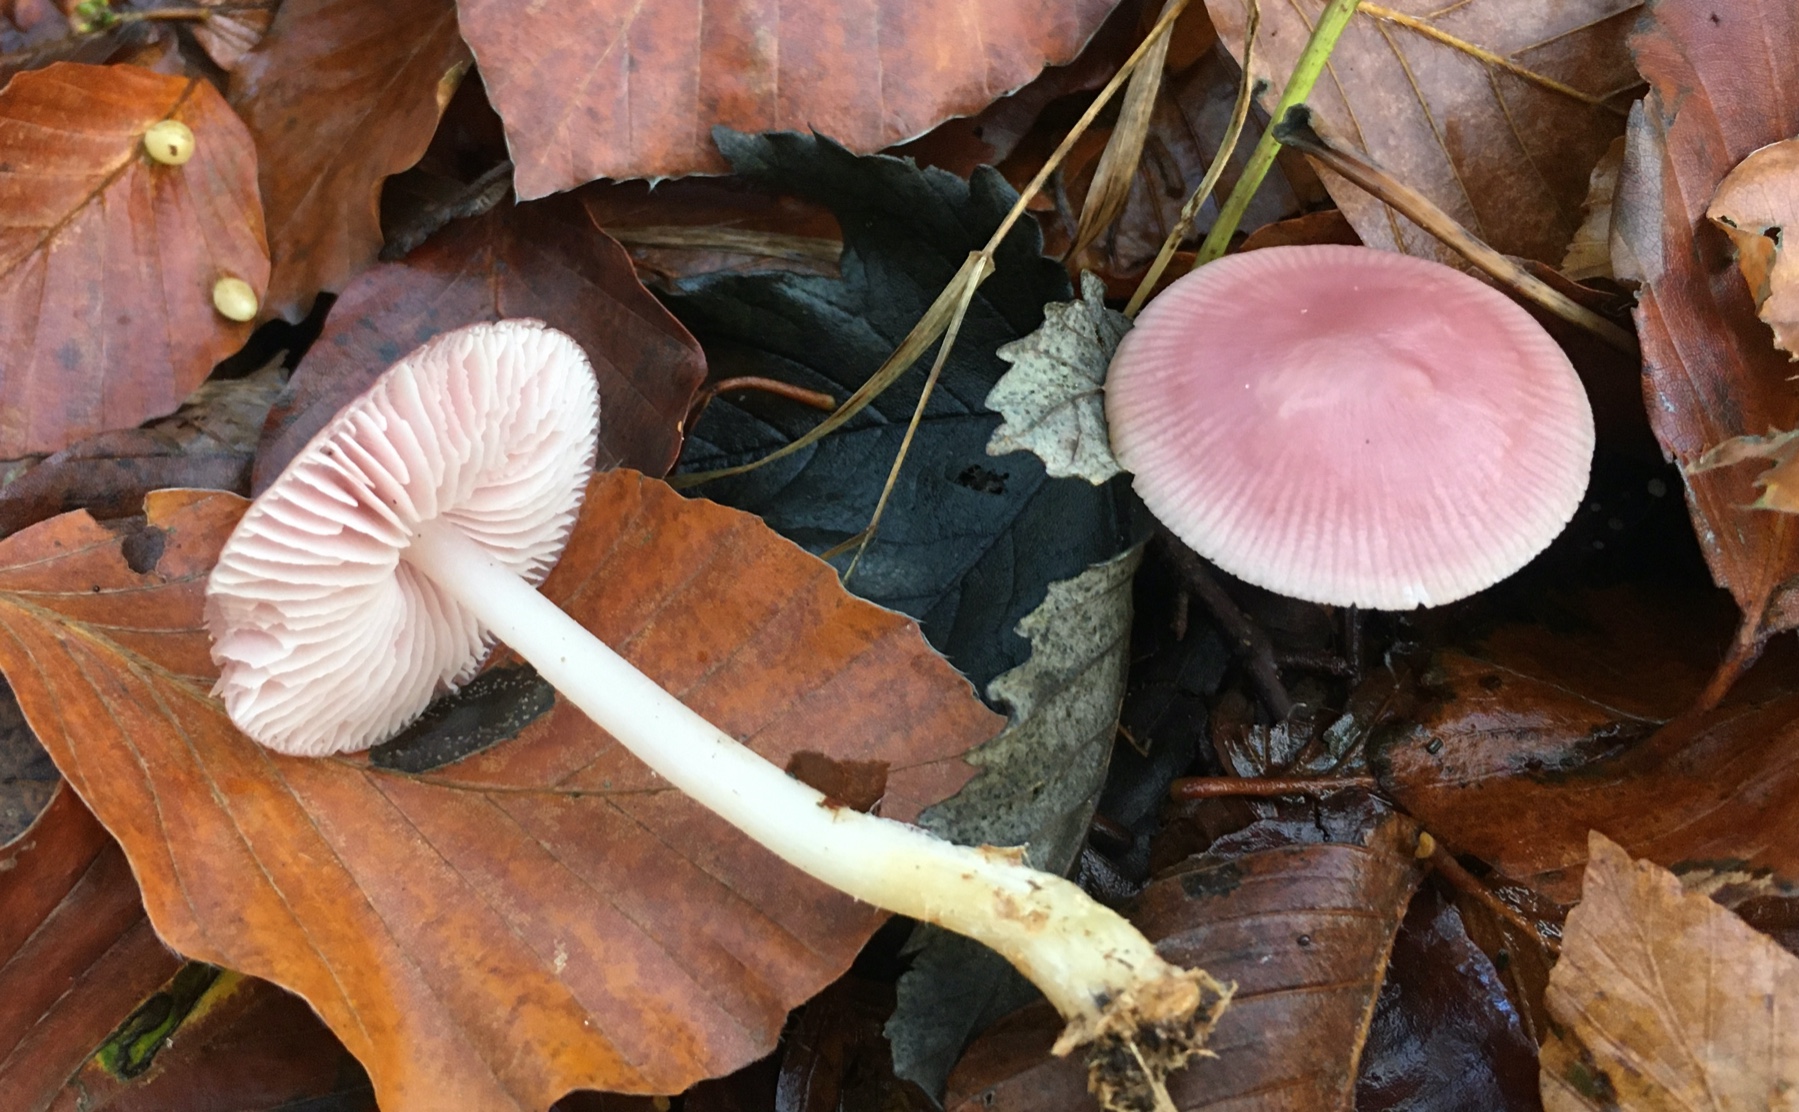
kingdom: Fungi
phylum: Basidiomycota
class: Agaricomycetes
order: Agaricales
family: Mycenaceae
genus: Mycena
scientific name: Mycena rosea
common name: rosa huesvamp
